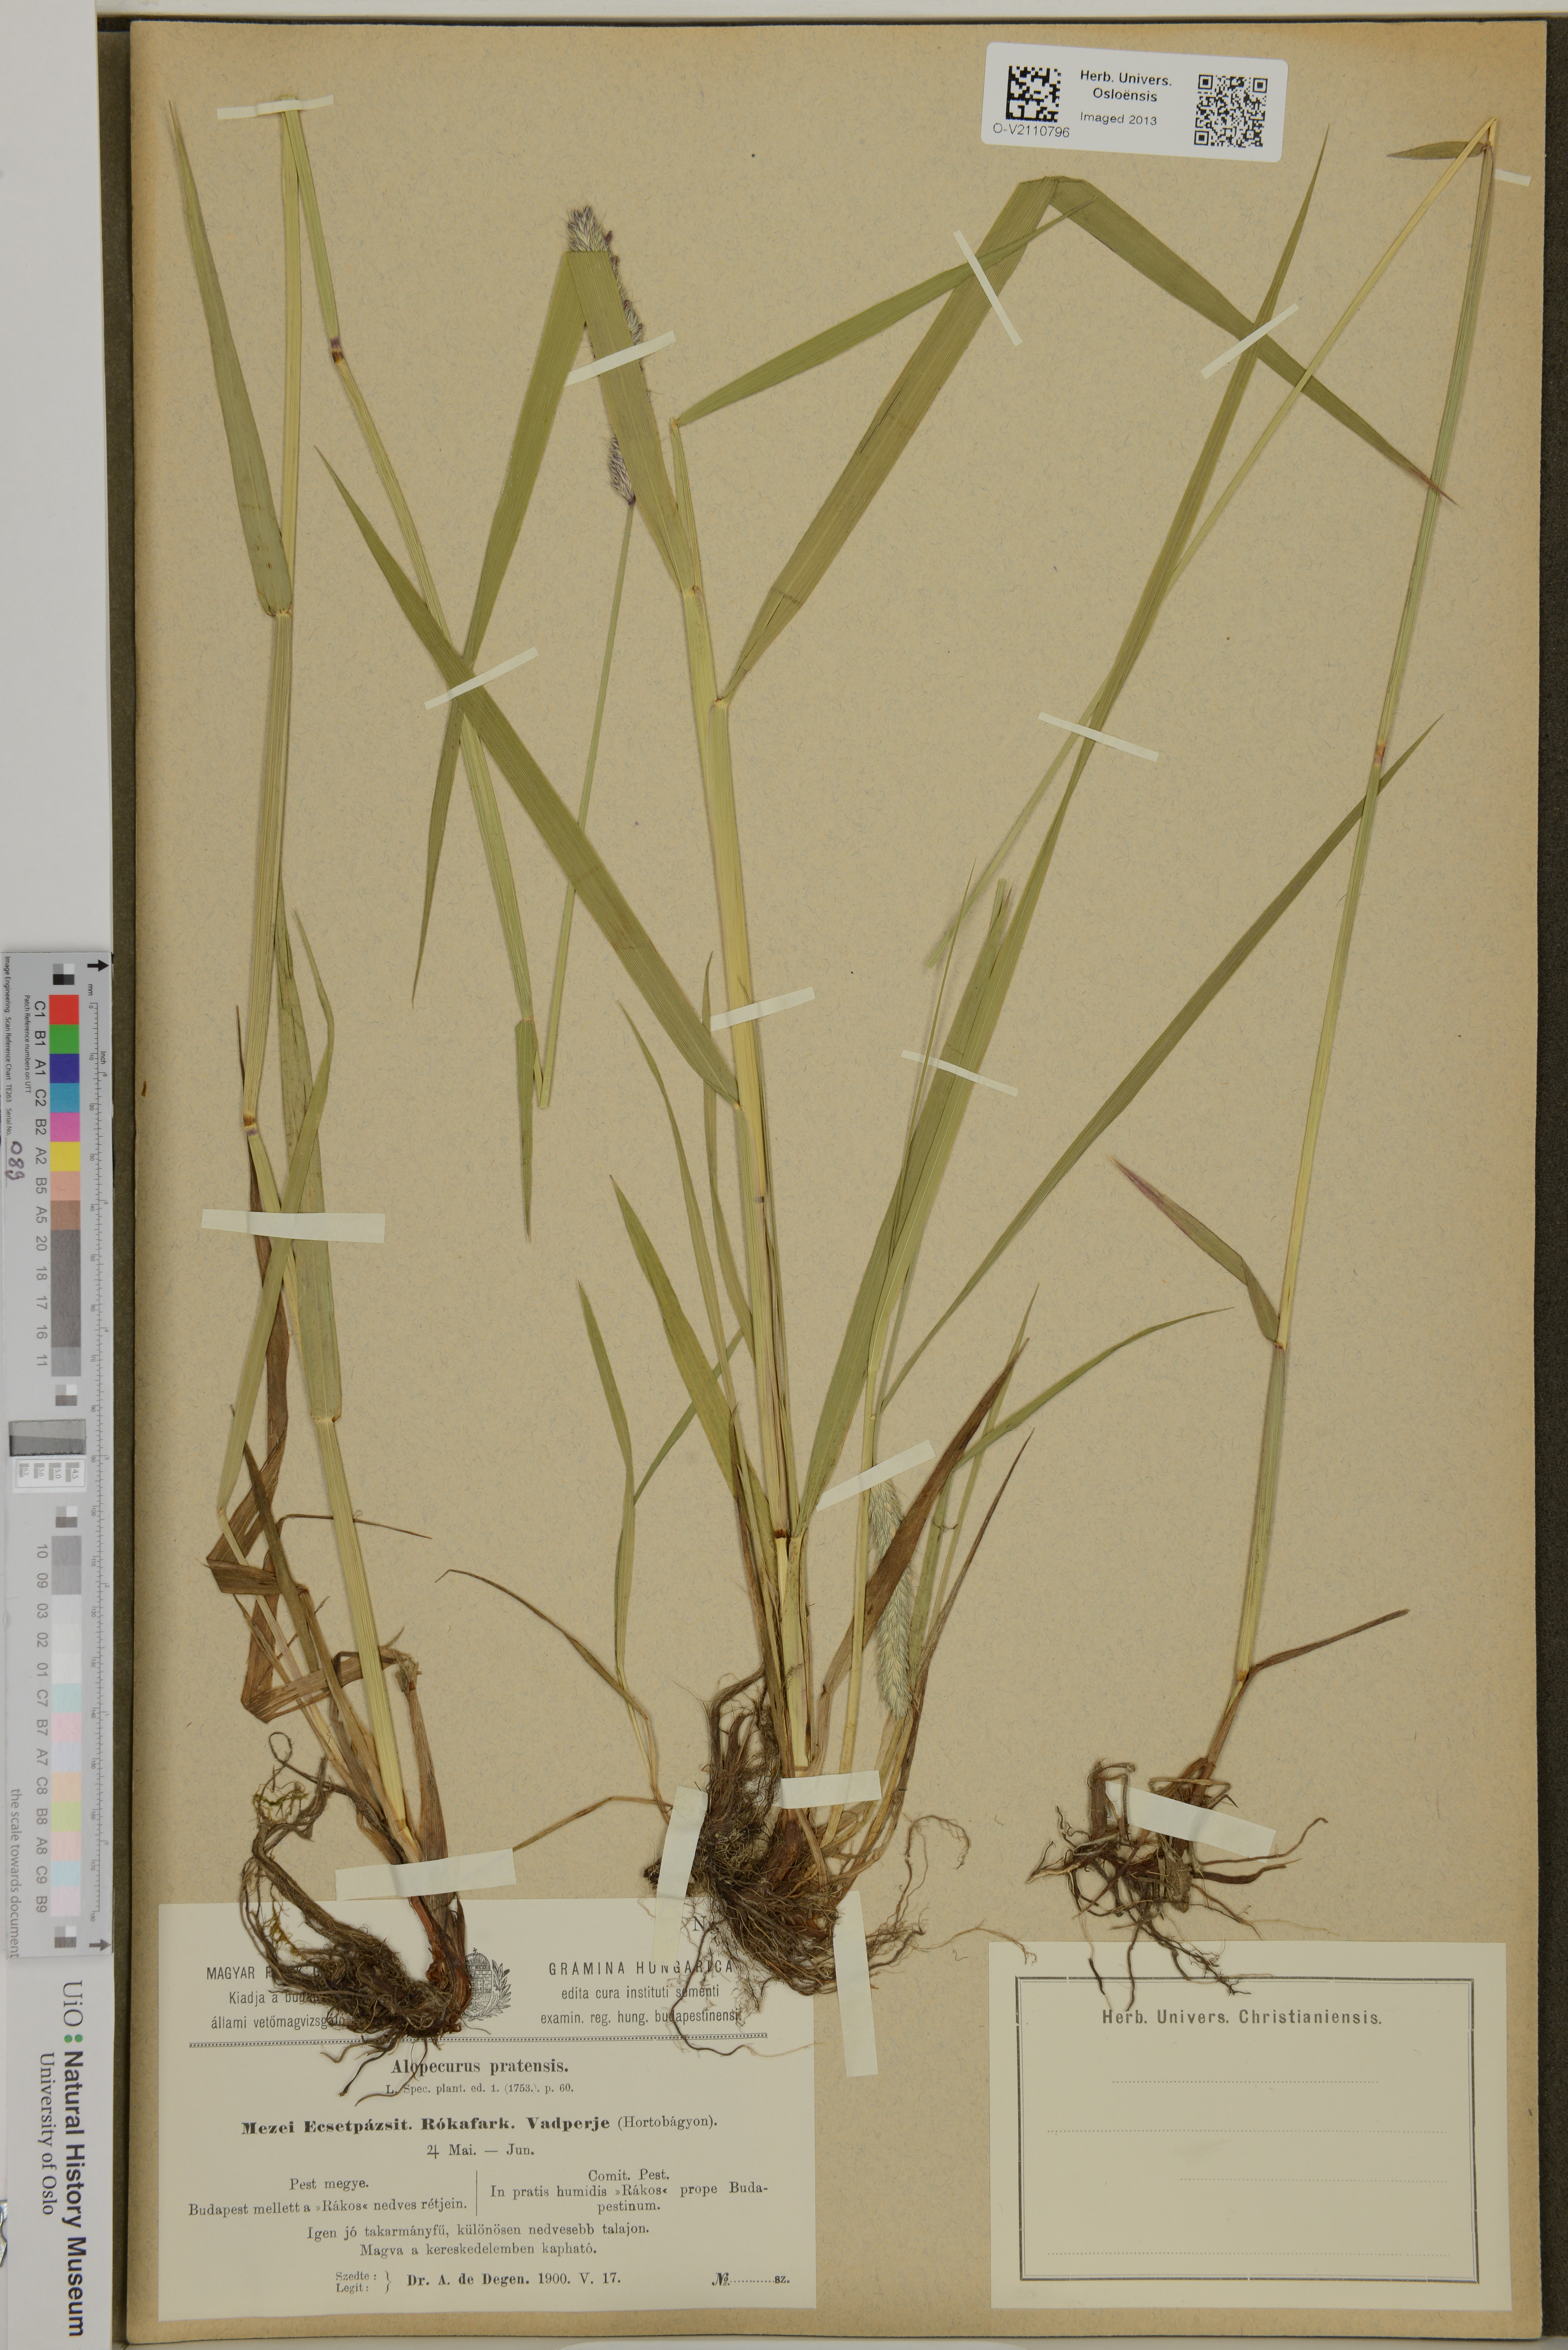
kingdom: Plantae
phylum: Tracheophyta
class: Liliopsida
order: Poales
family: Poaceae
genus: Alopecurus
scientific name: Alopecurus pratensis
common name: Meadow foxtail
